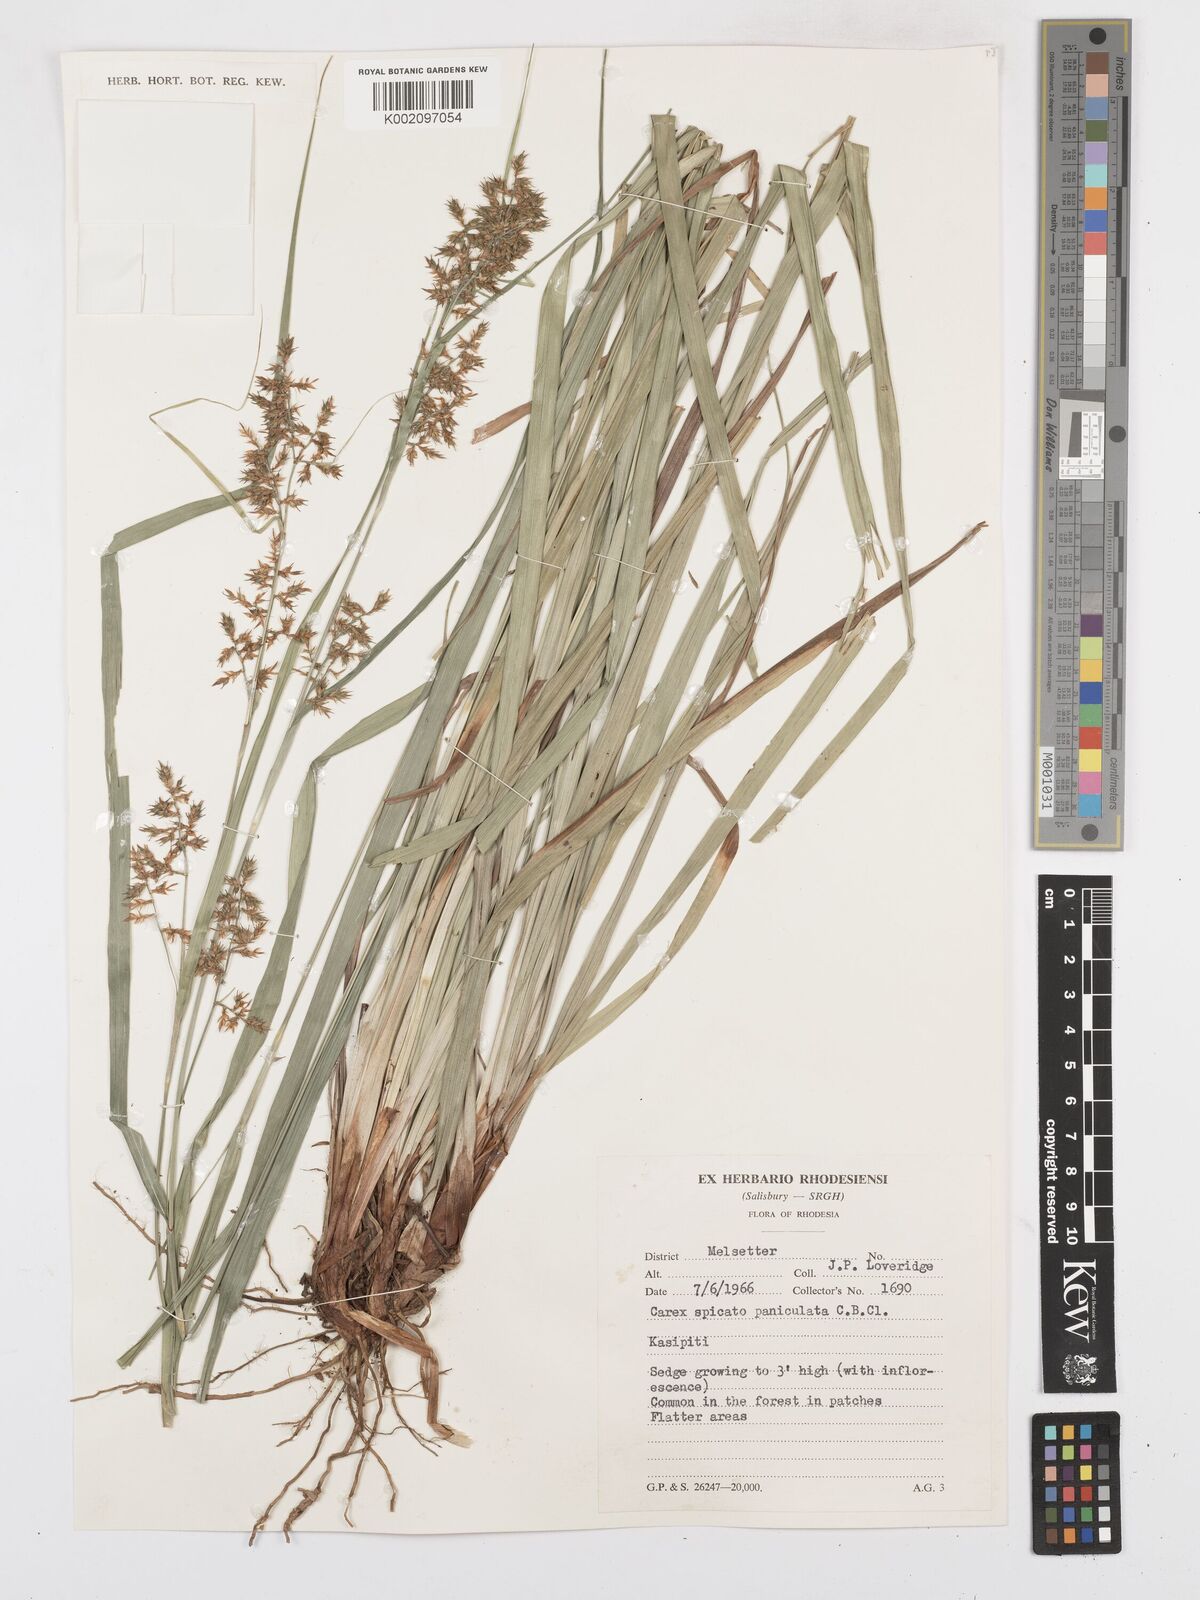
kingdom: Plantae
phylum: Tracheophyta
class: Liliopsida
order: Poales
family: Cyperaceae
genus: Carex
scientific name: Carex spicatopaniculata
